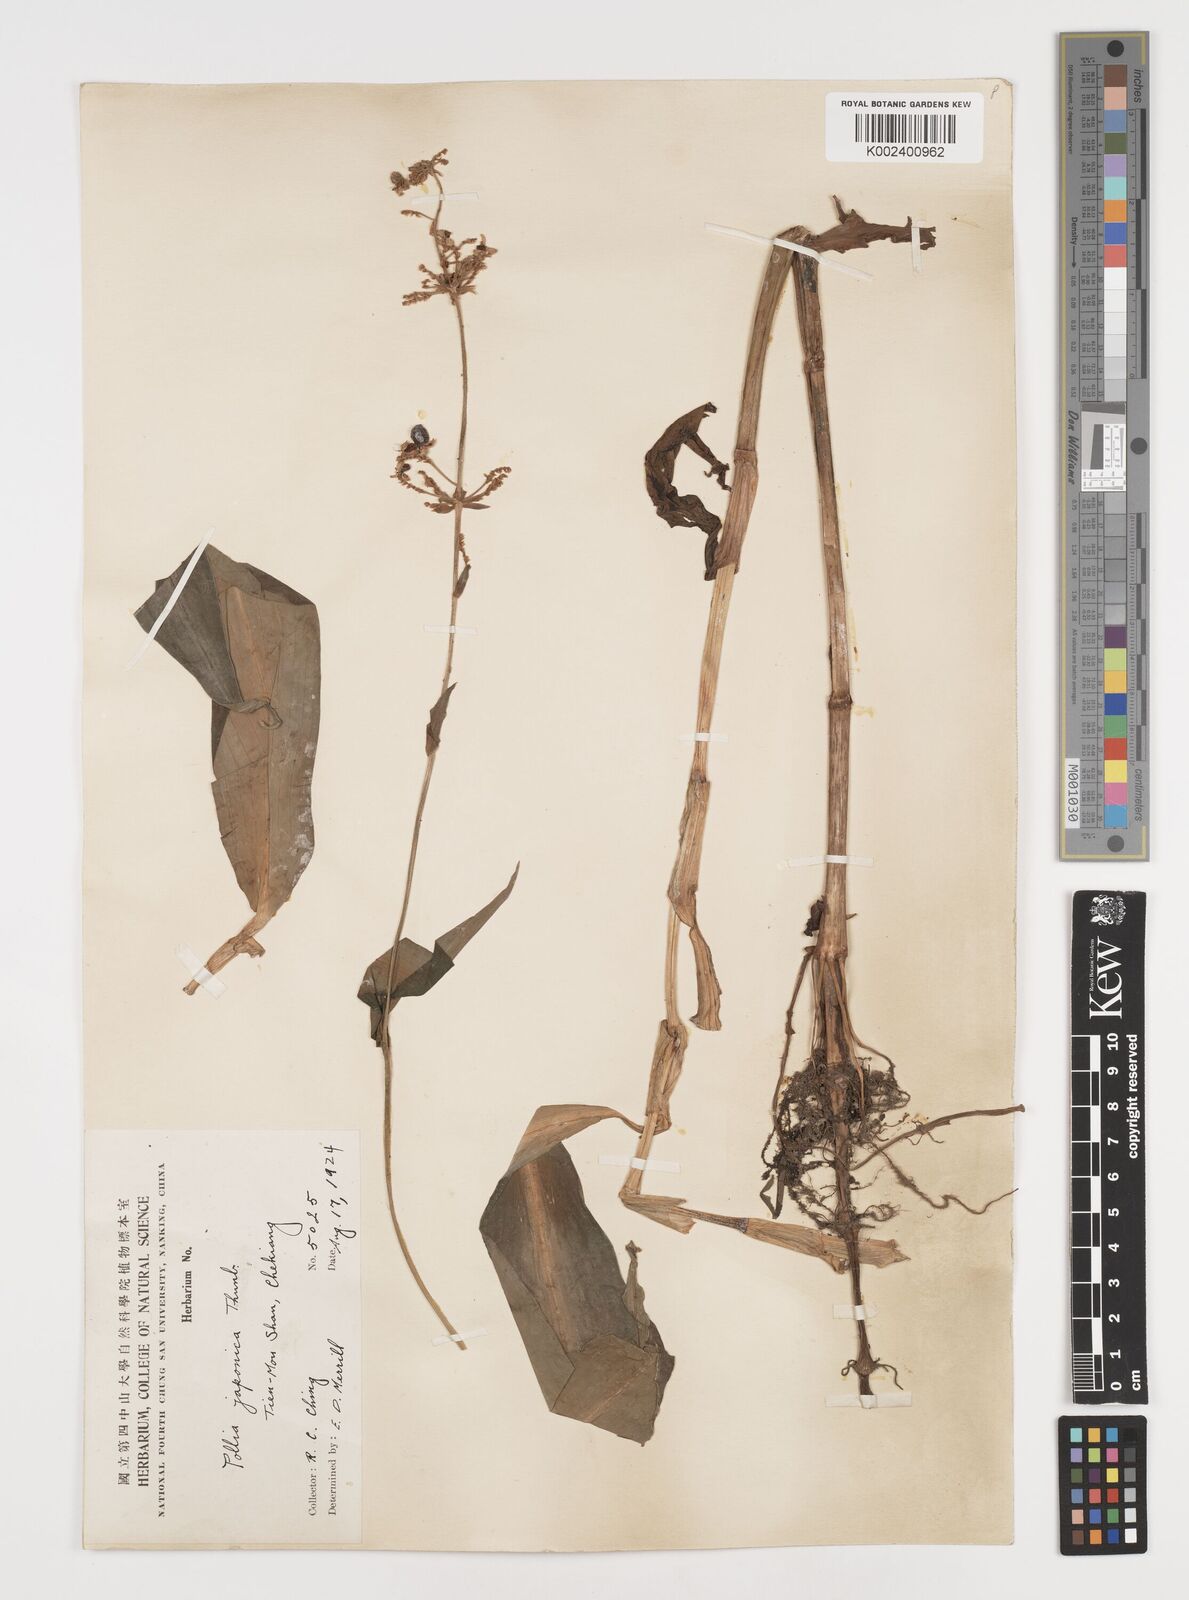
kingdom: Plantae
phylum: Tracheophyta
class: Liliopsida
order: Commelinales
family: Commelinaceae
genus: Pollia
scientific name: Pollia japonica
